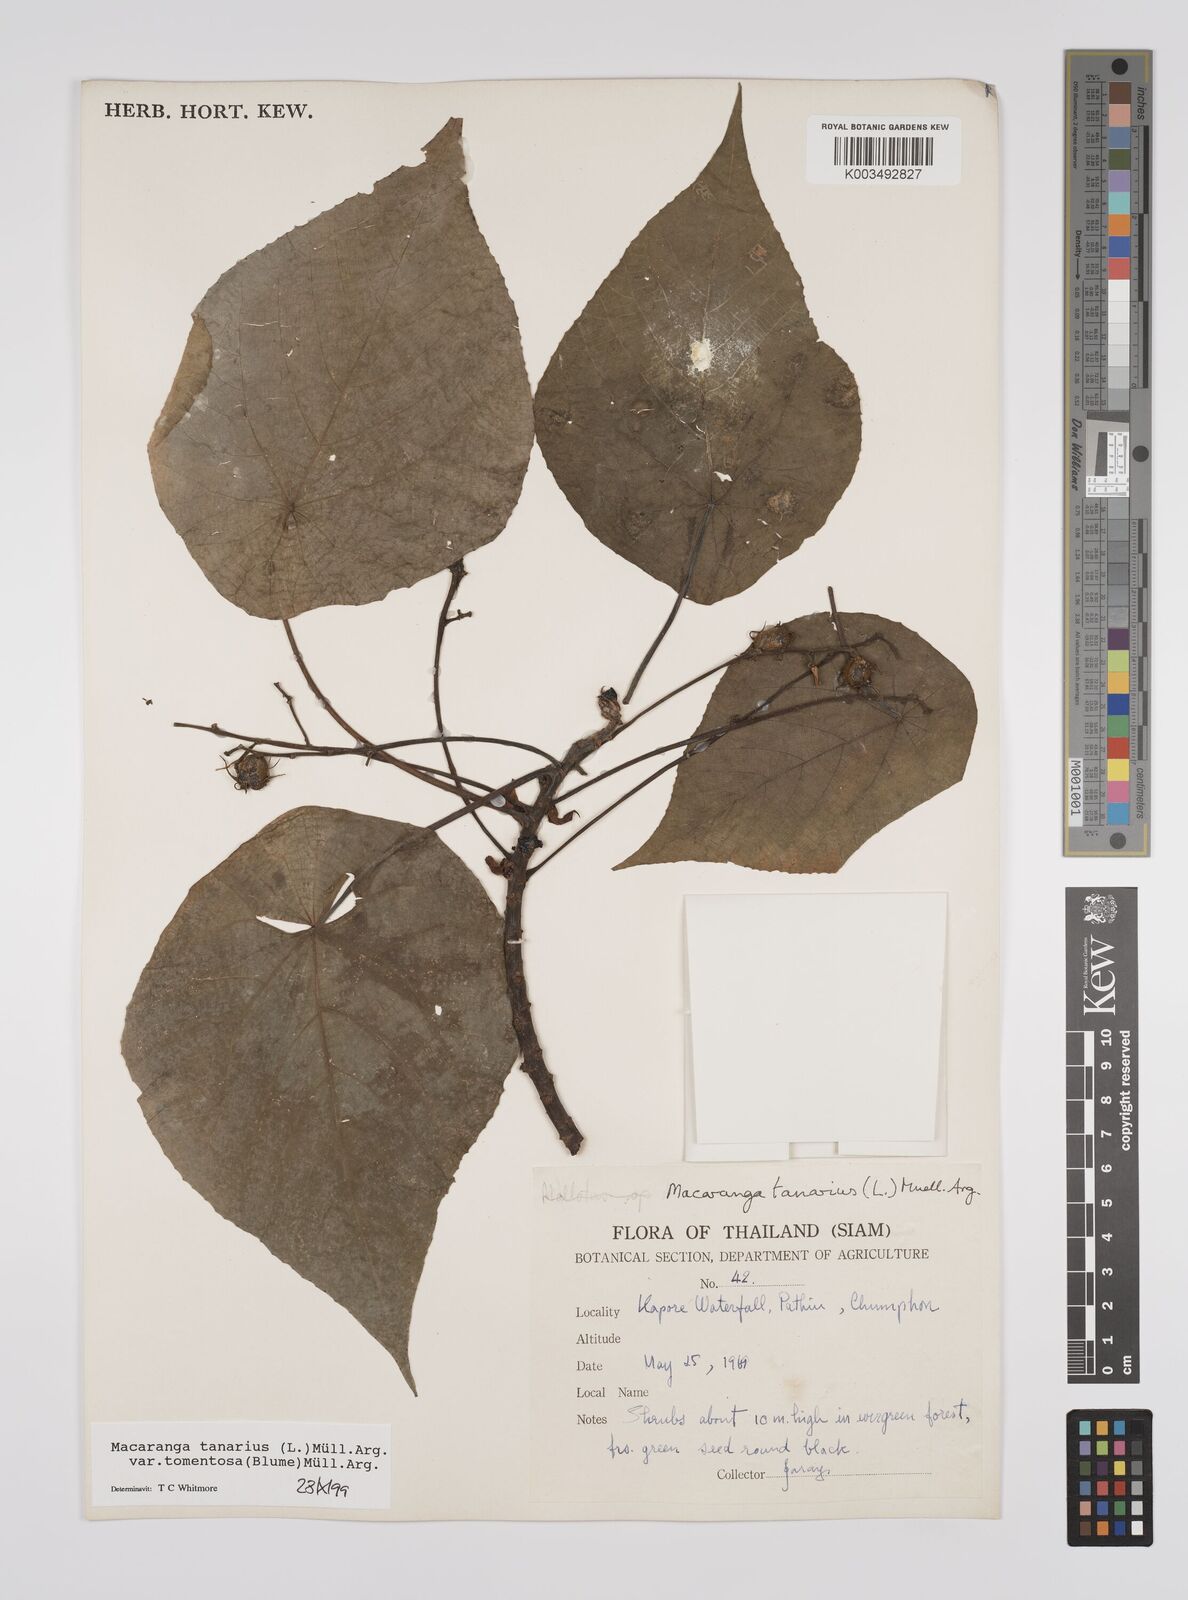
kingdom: Plantae
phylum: Tracheophyta
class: Magnoliopsida
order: Malpighiales
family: Euphorbiaceae
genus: Macaranga
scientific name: Macaranga tanarius
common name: Parasol leaf tree
